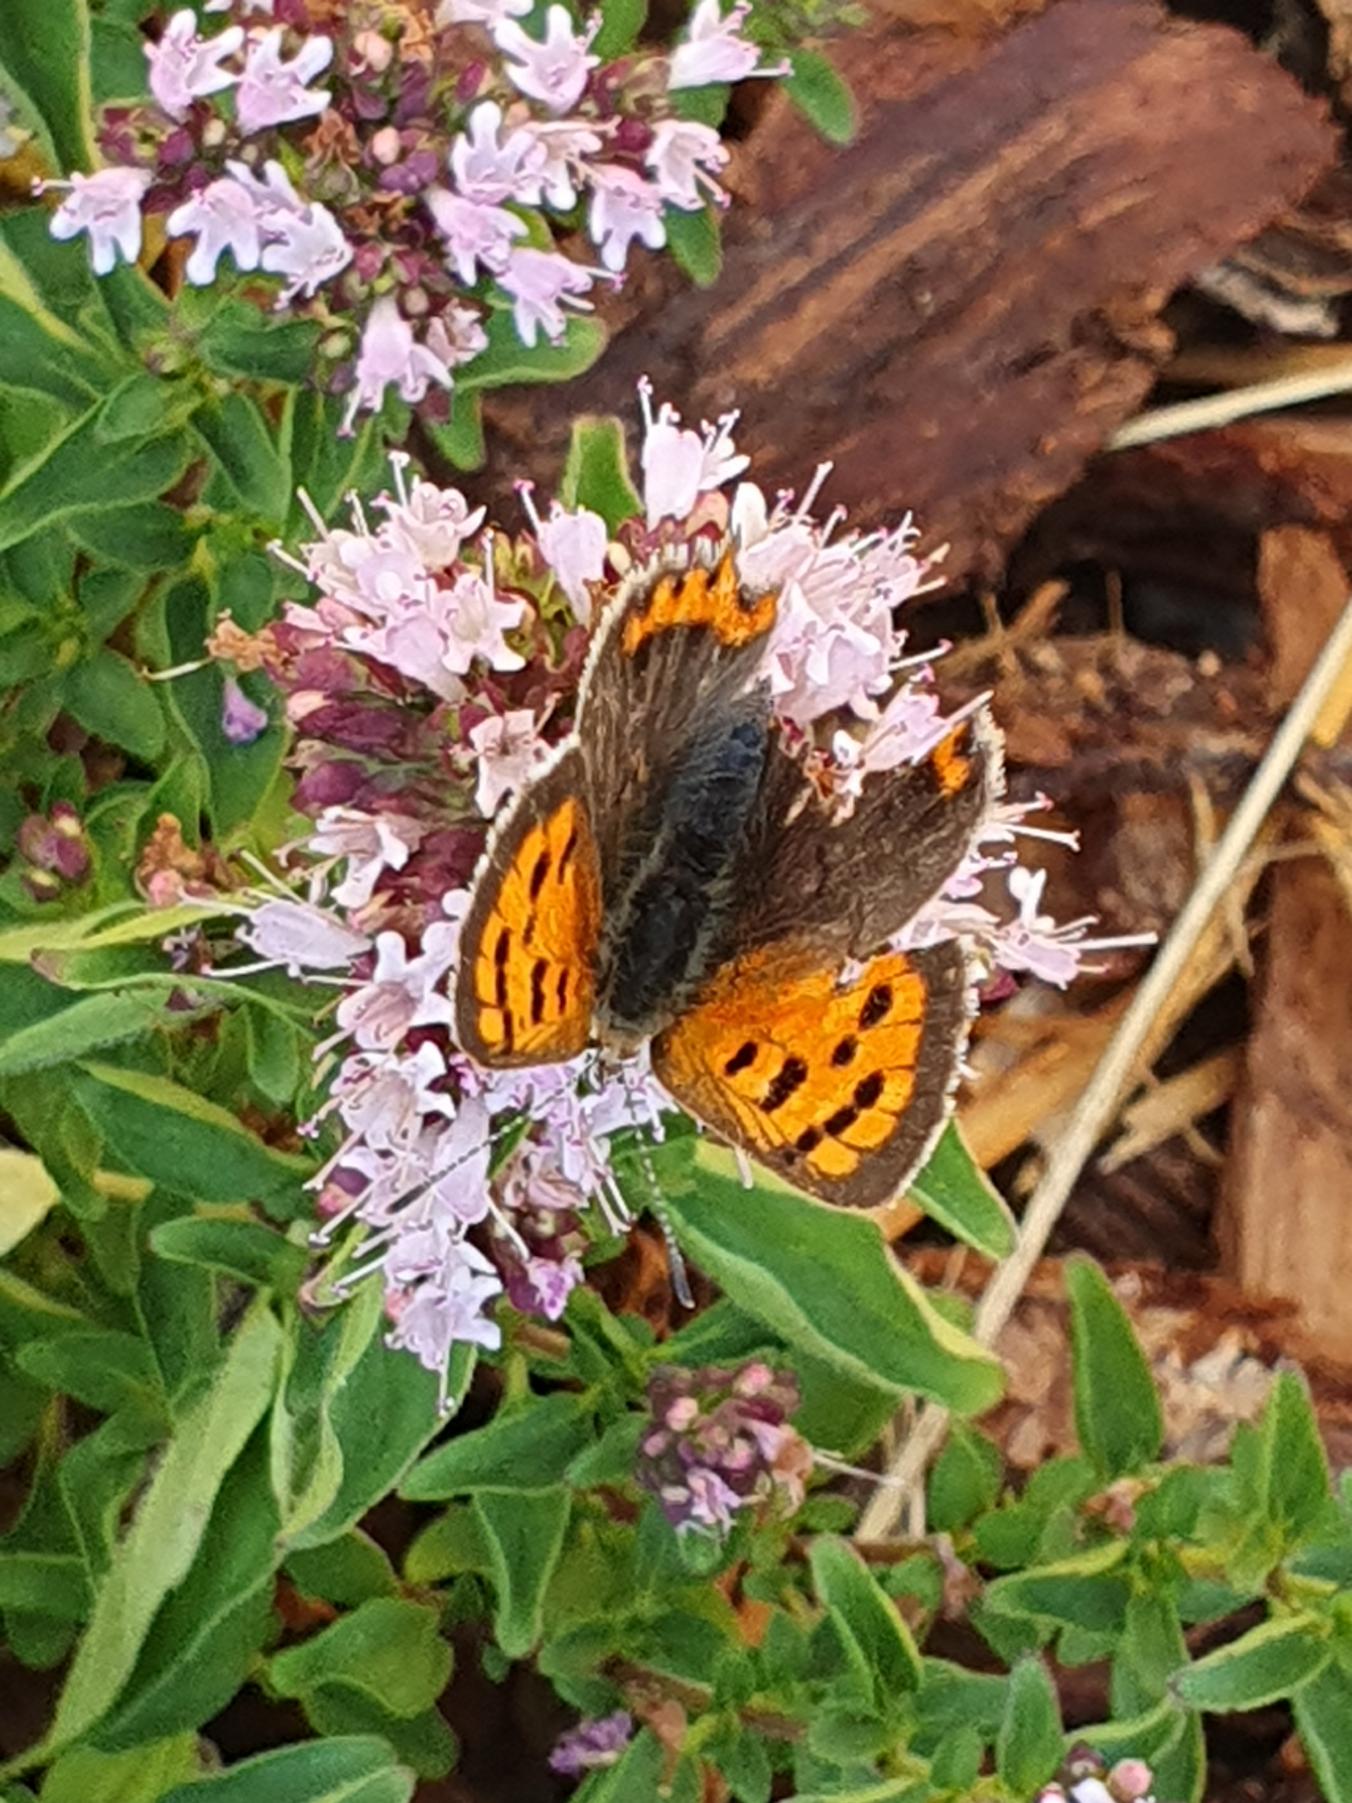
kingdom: Animalia
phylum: Arthropoda
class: Insecta
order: Lepidoptera
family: Lycaenidae
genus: Lycaena
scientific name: Lycaena phlaeas
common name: Lille ildfugl
